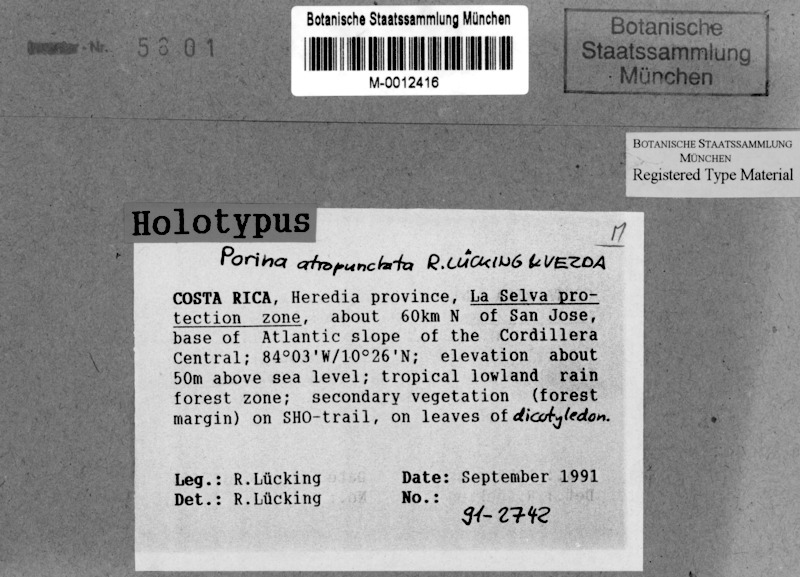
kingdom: Fungi
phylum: Ascomycota
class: Lecanoromycetes
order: Pertusariales
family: Pertusariaceae
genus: Porina
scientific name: Porina atropunctata
